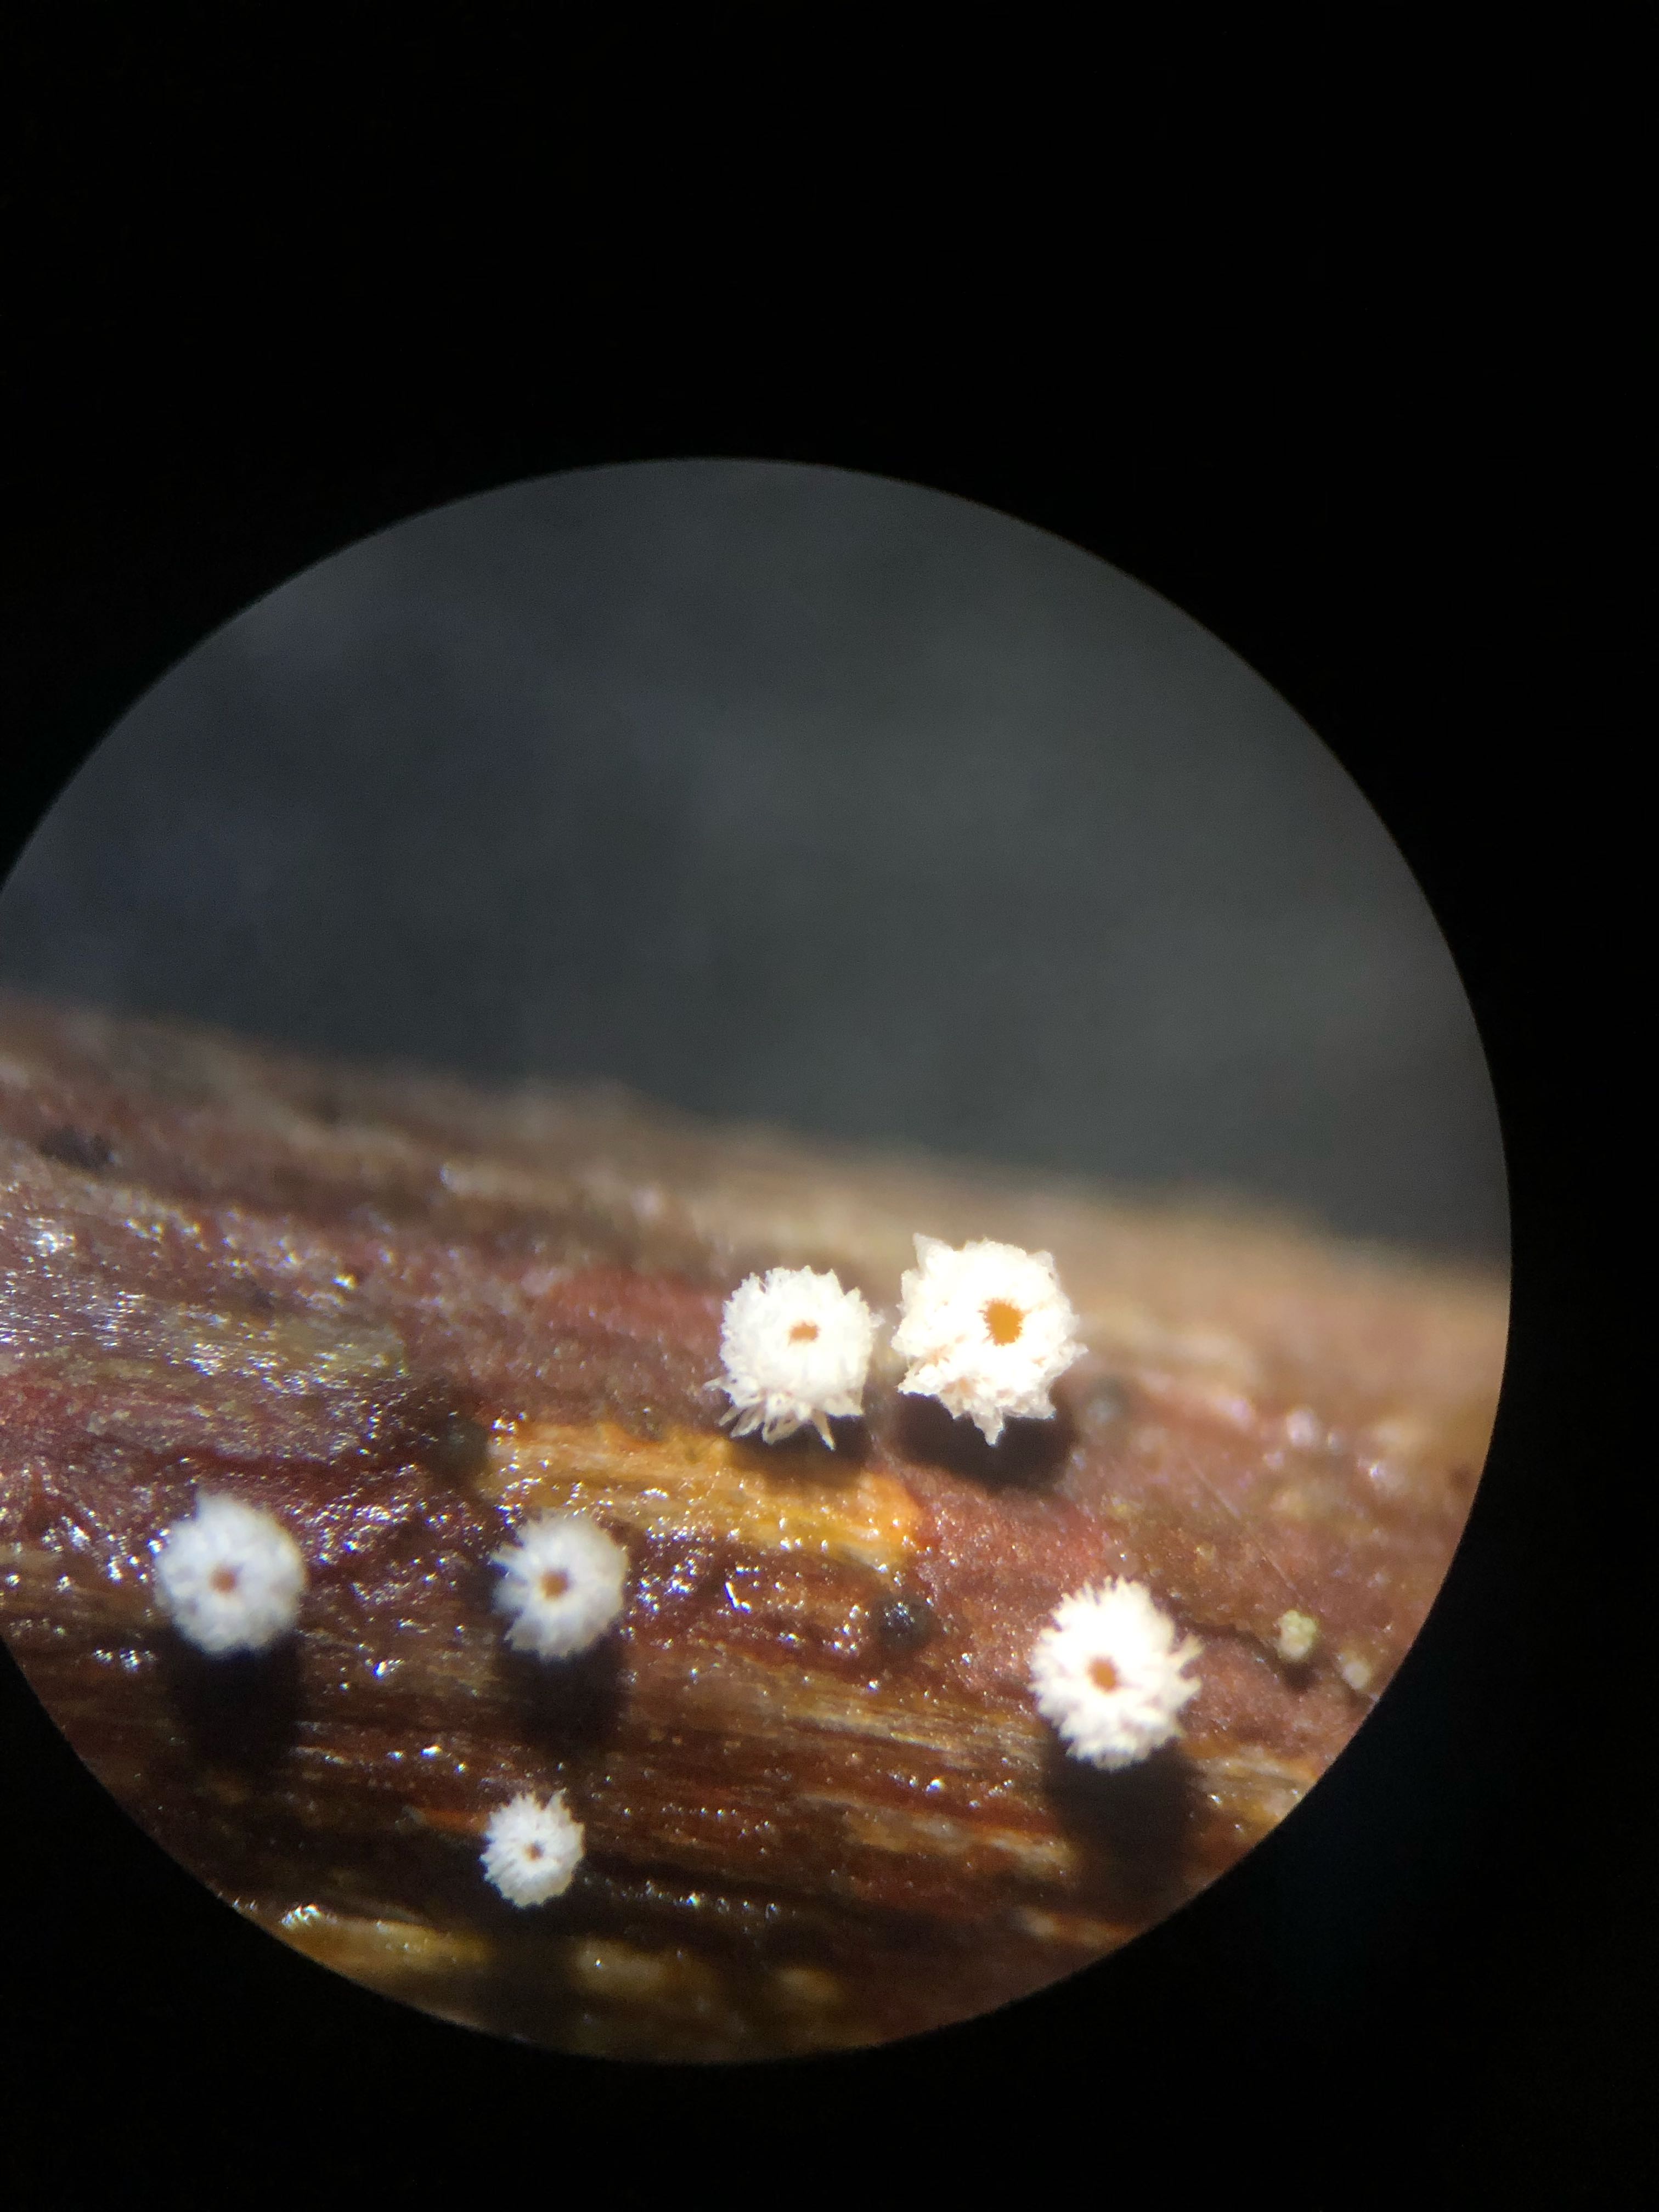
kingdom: Fungi
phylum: Ascomycota
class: Leotiomycetes
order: Helotiales
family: Lachnaceae
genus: Capitotricha
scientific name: Capitotricha rubi
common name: orangegul frynseskive
